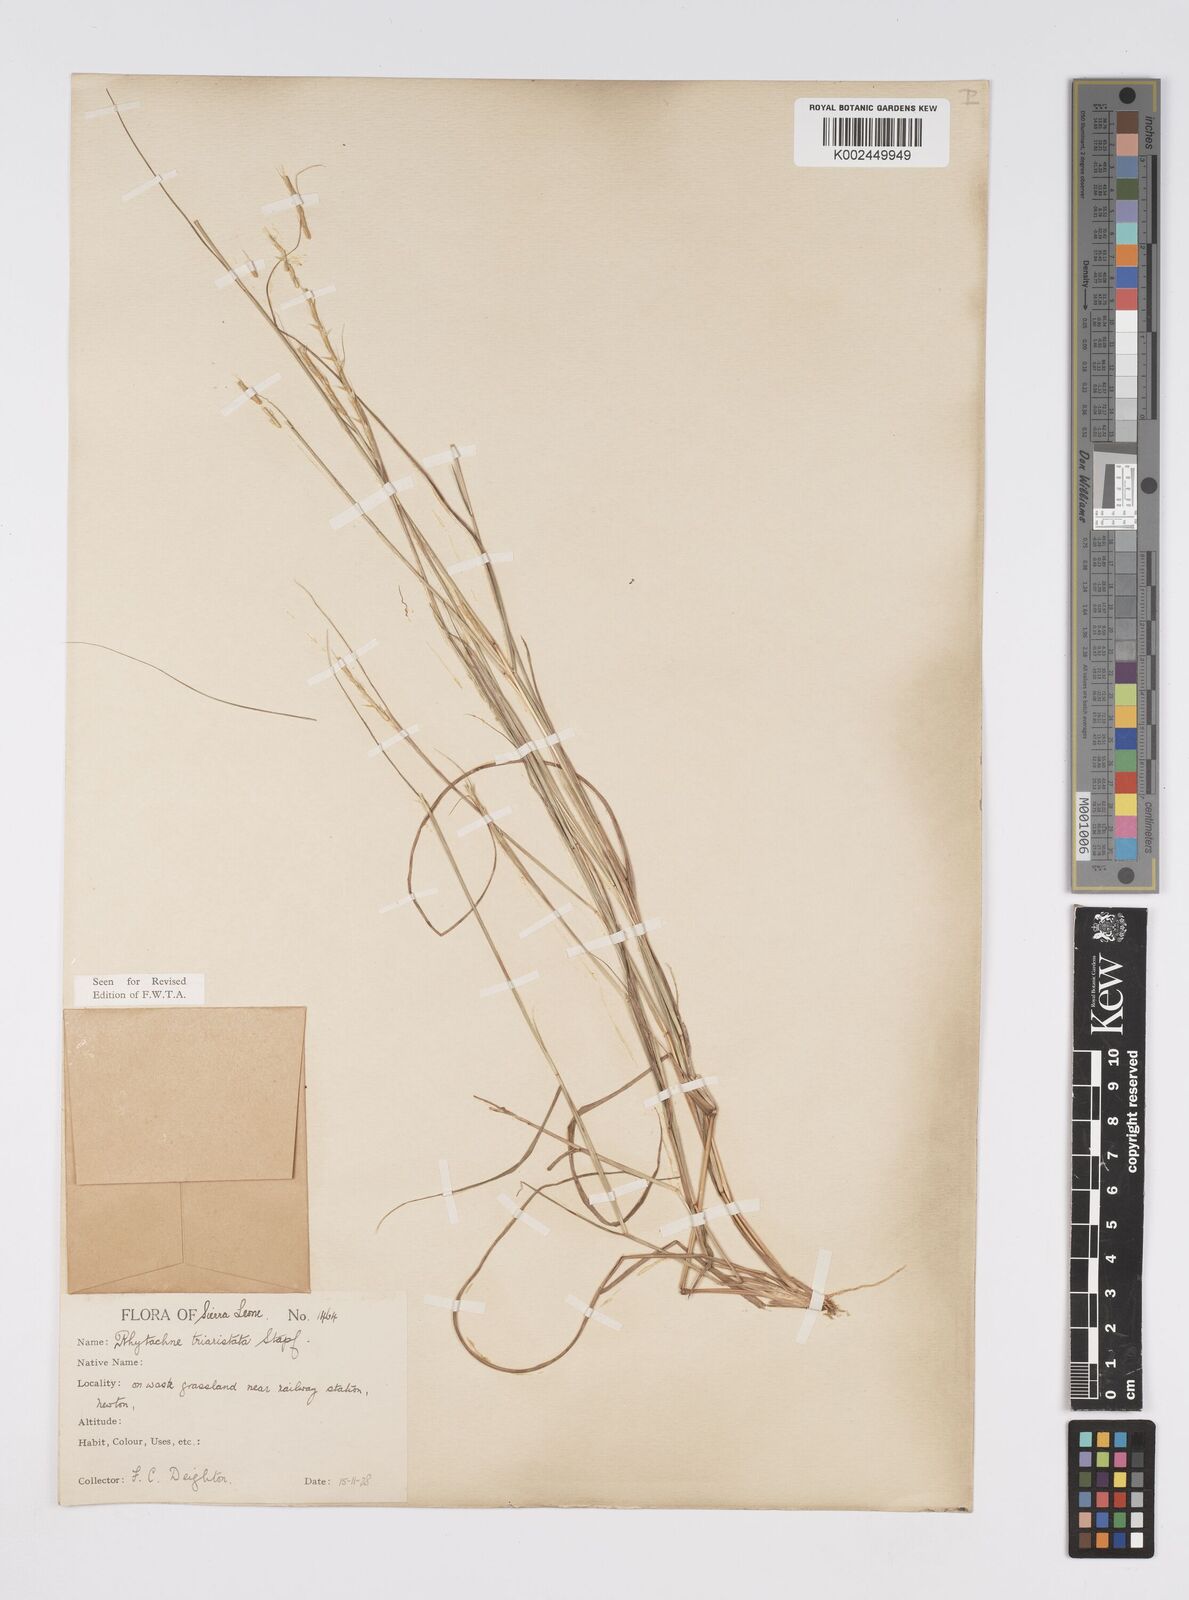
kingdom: Plantae
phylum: Tracheophyta
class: Liliopsida
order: Poales
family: Poaceae
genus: Rhytachne
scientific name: Rhytachne triaristata
